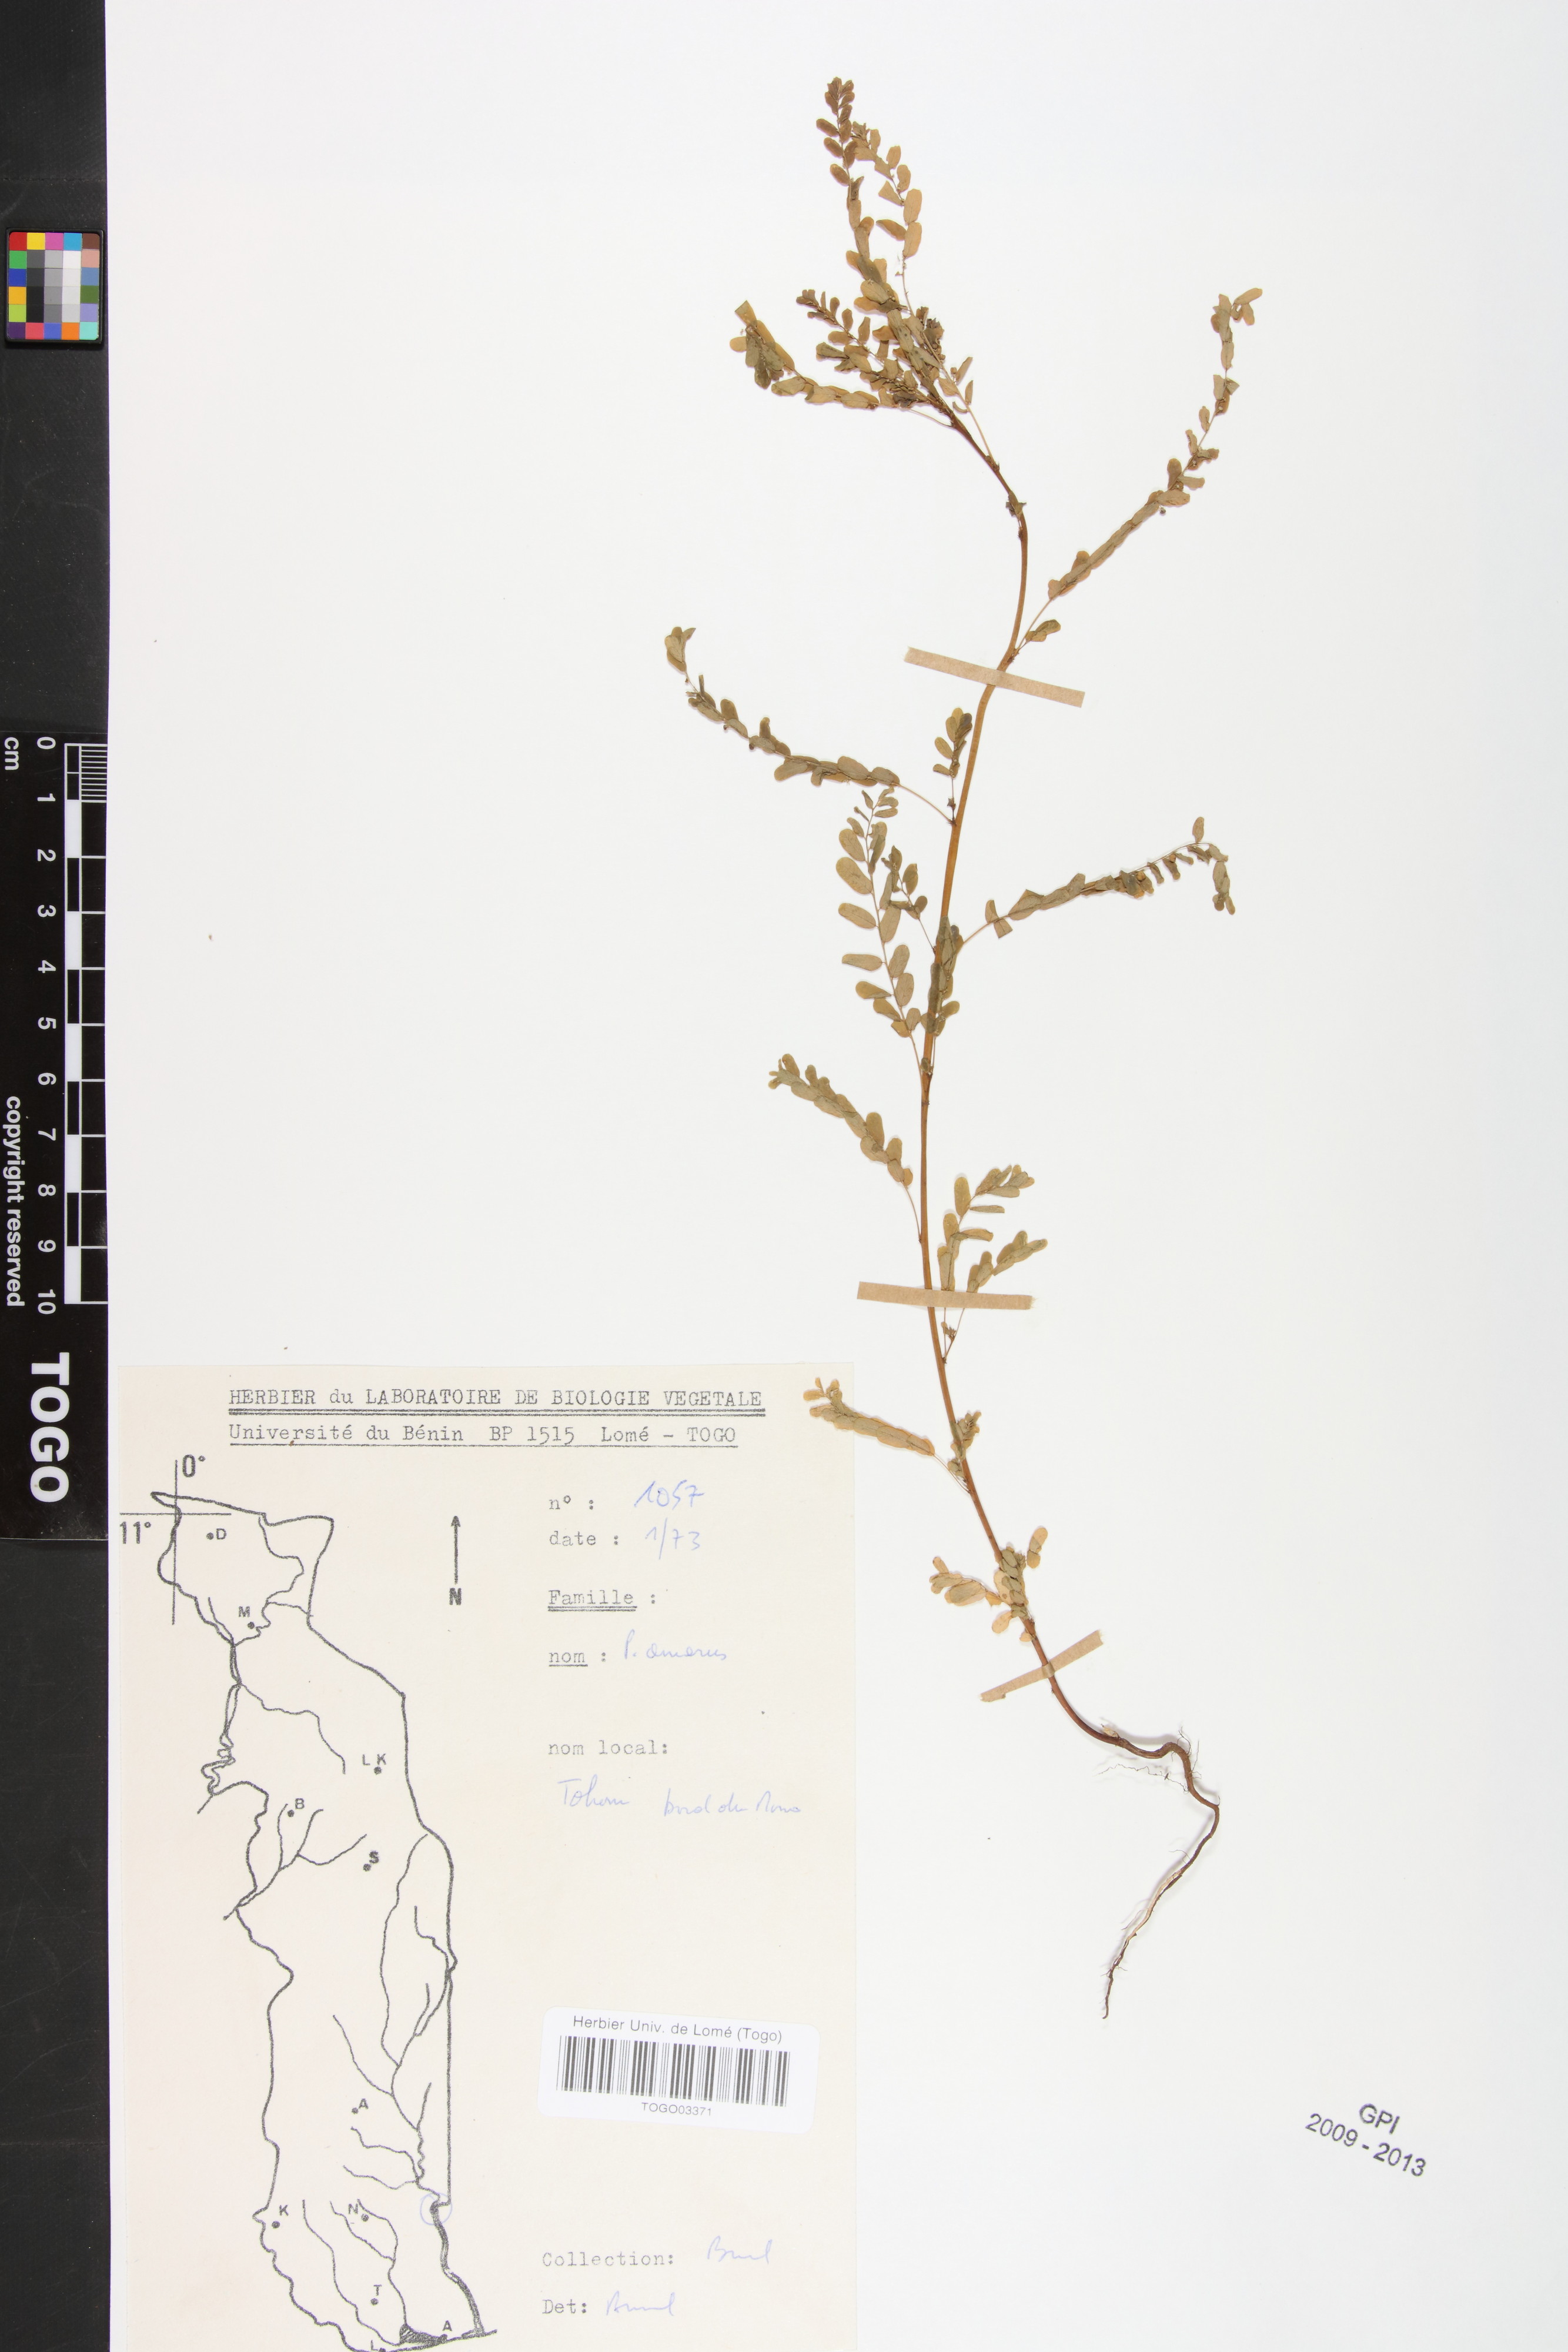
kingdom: Plantae
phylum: Tracheophyta
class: Magnoliopsida
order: Malpighiales
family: Phyllanthaceae
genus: Phyllanthus
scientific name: Phyllanthus amarus
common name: Carry me seed
